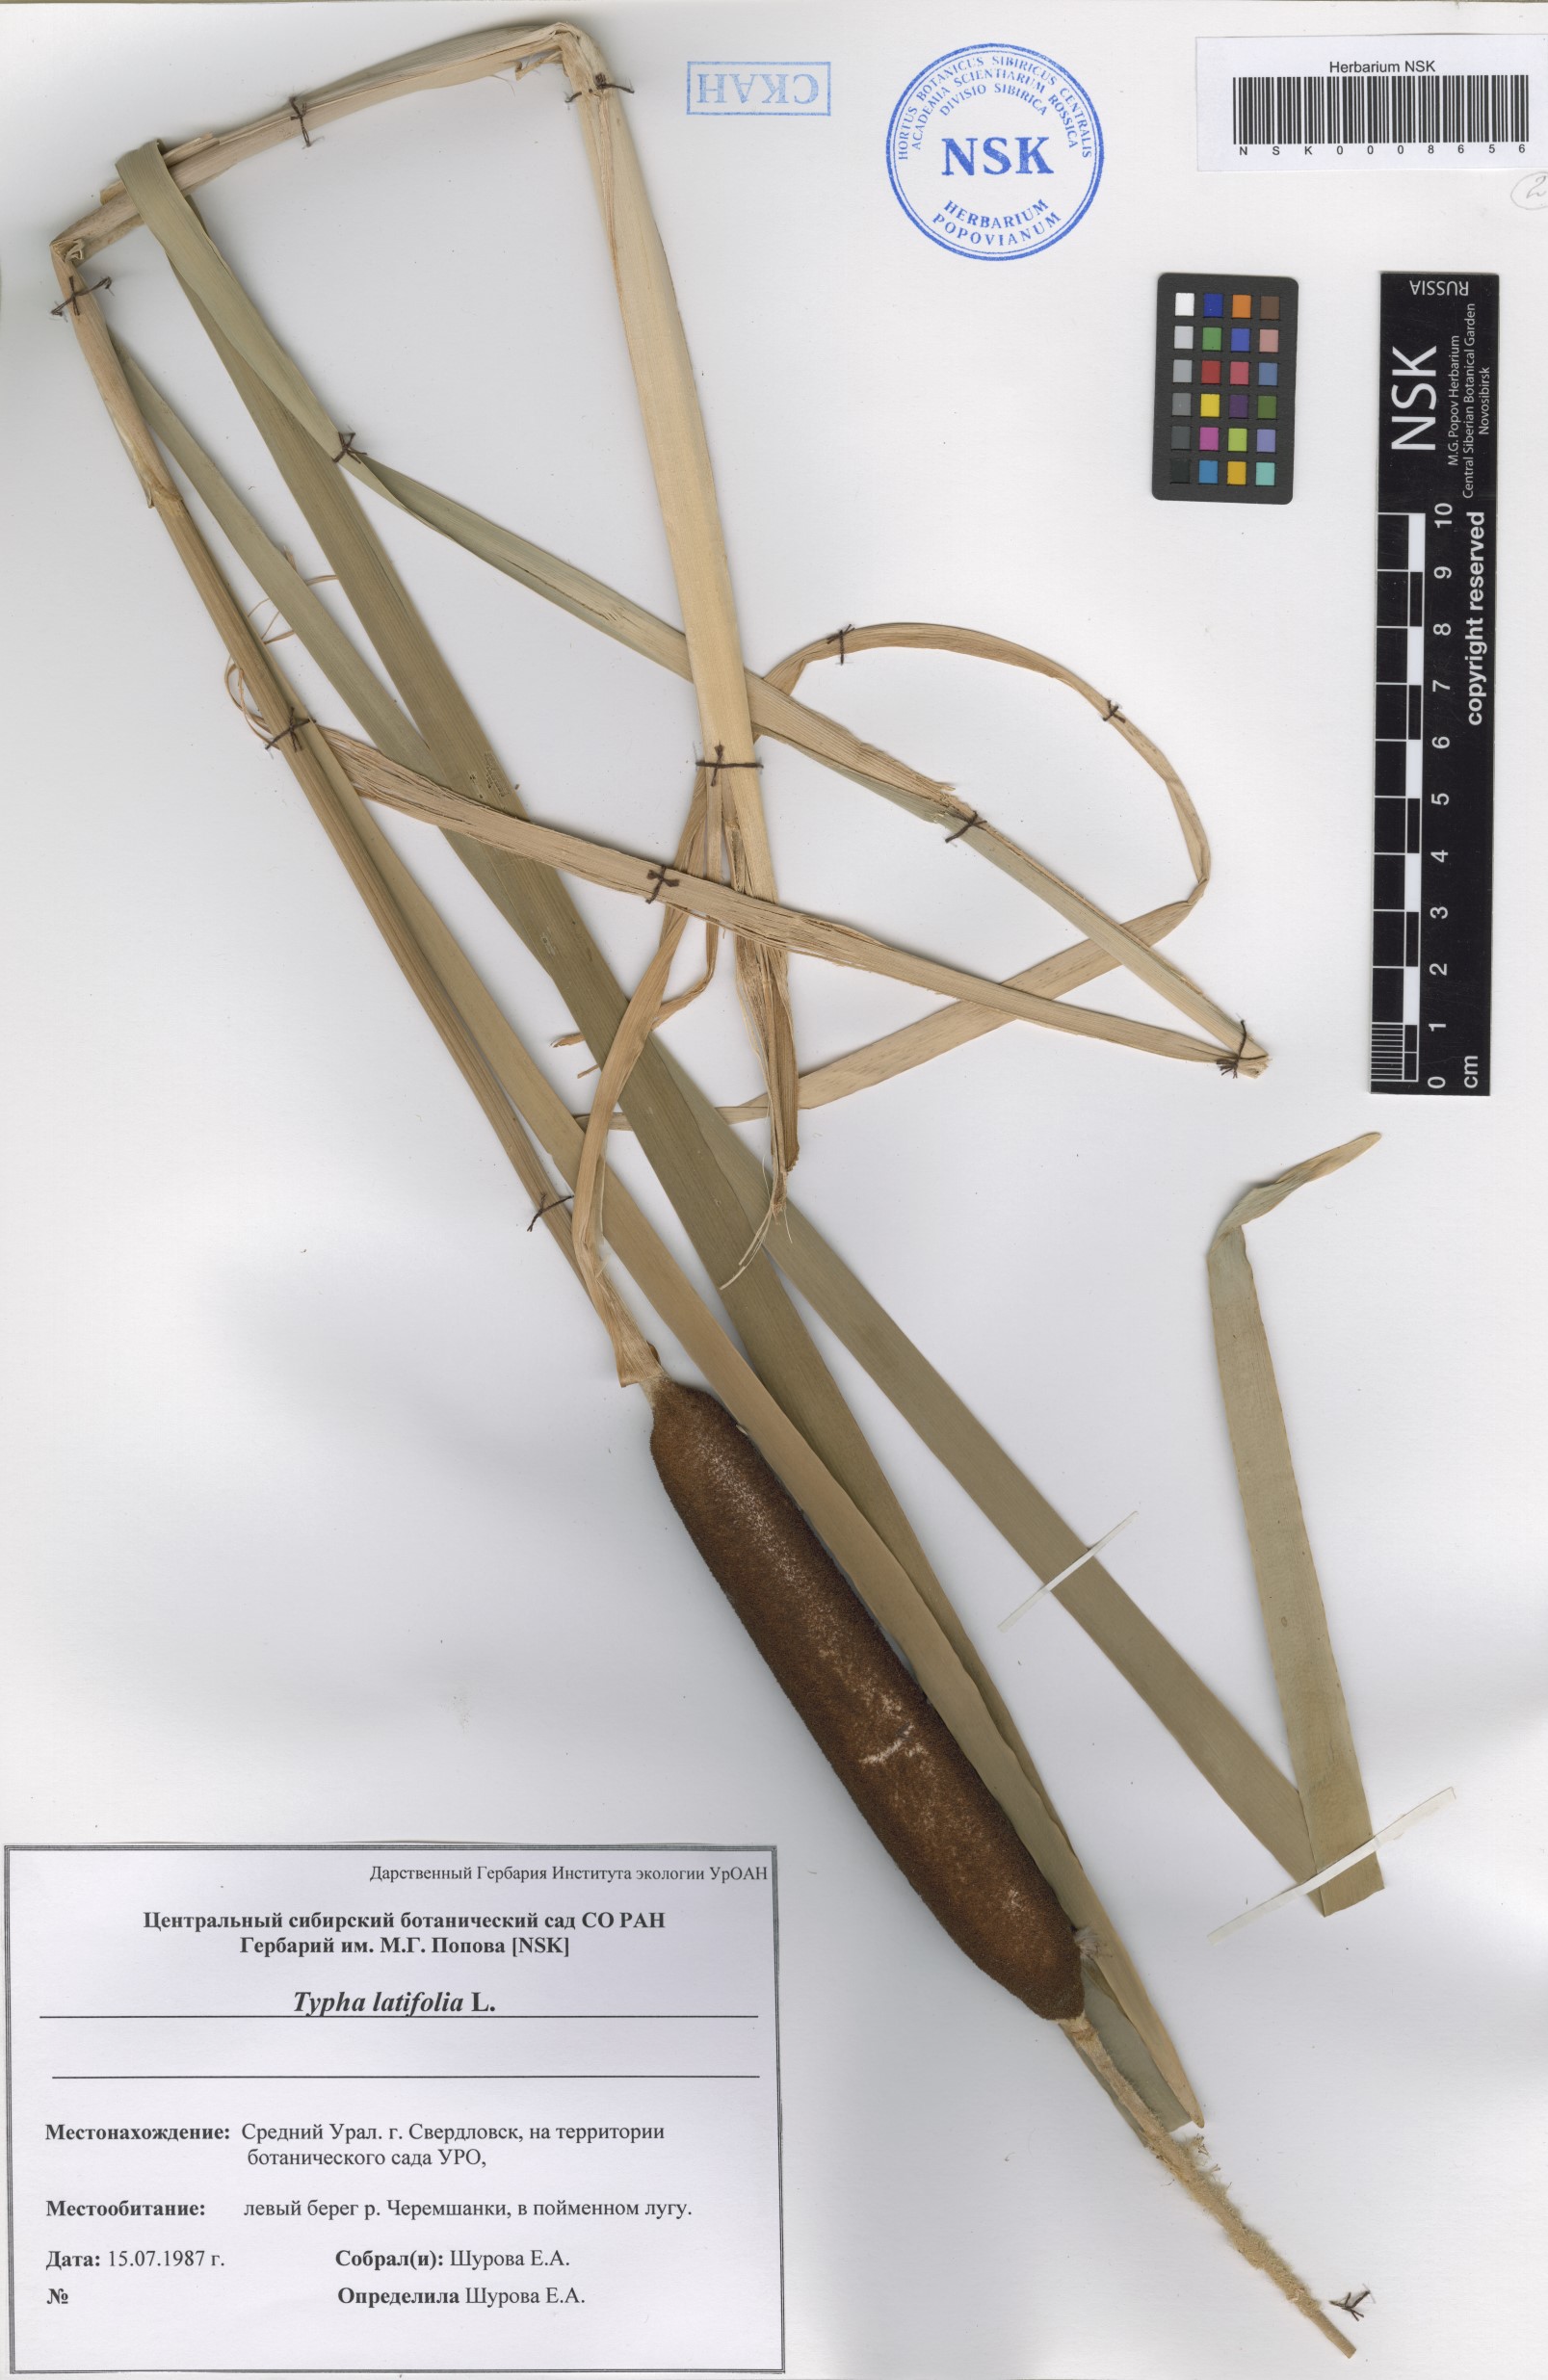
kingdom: Plantae
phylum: Tracheophyta
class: Liliopsida
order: Poales
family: Typhaceae
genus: Typha
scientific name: Typha latifolia
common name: Broadleaf cattail
